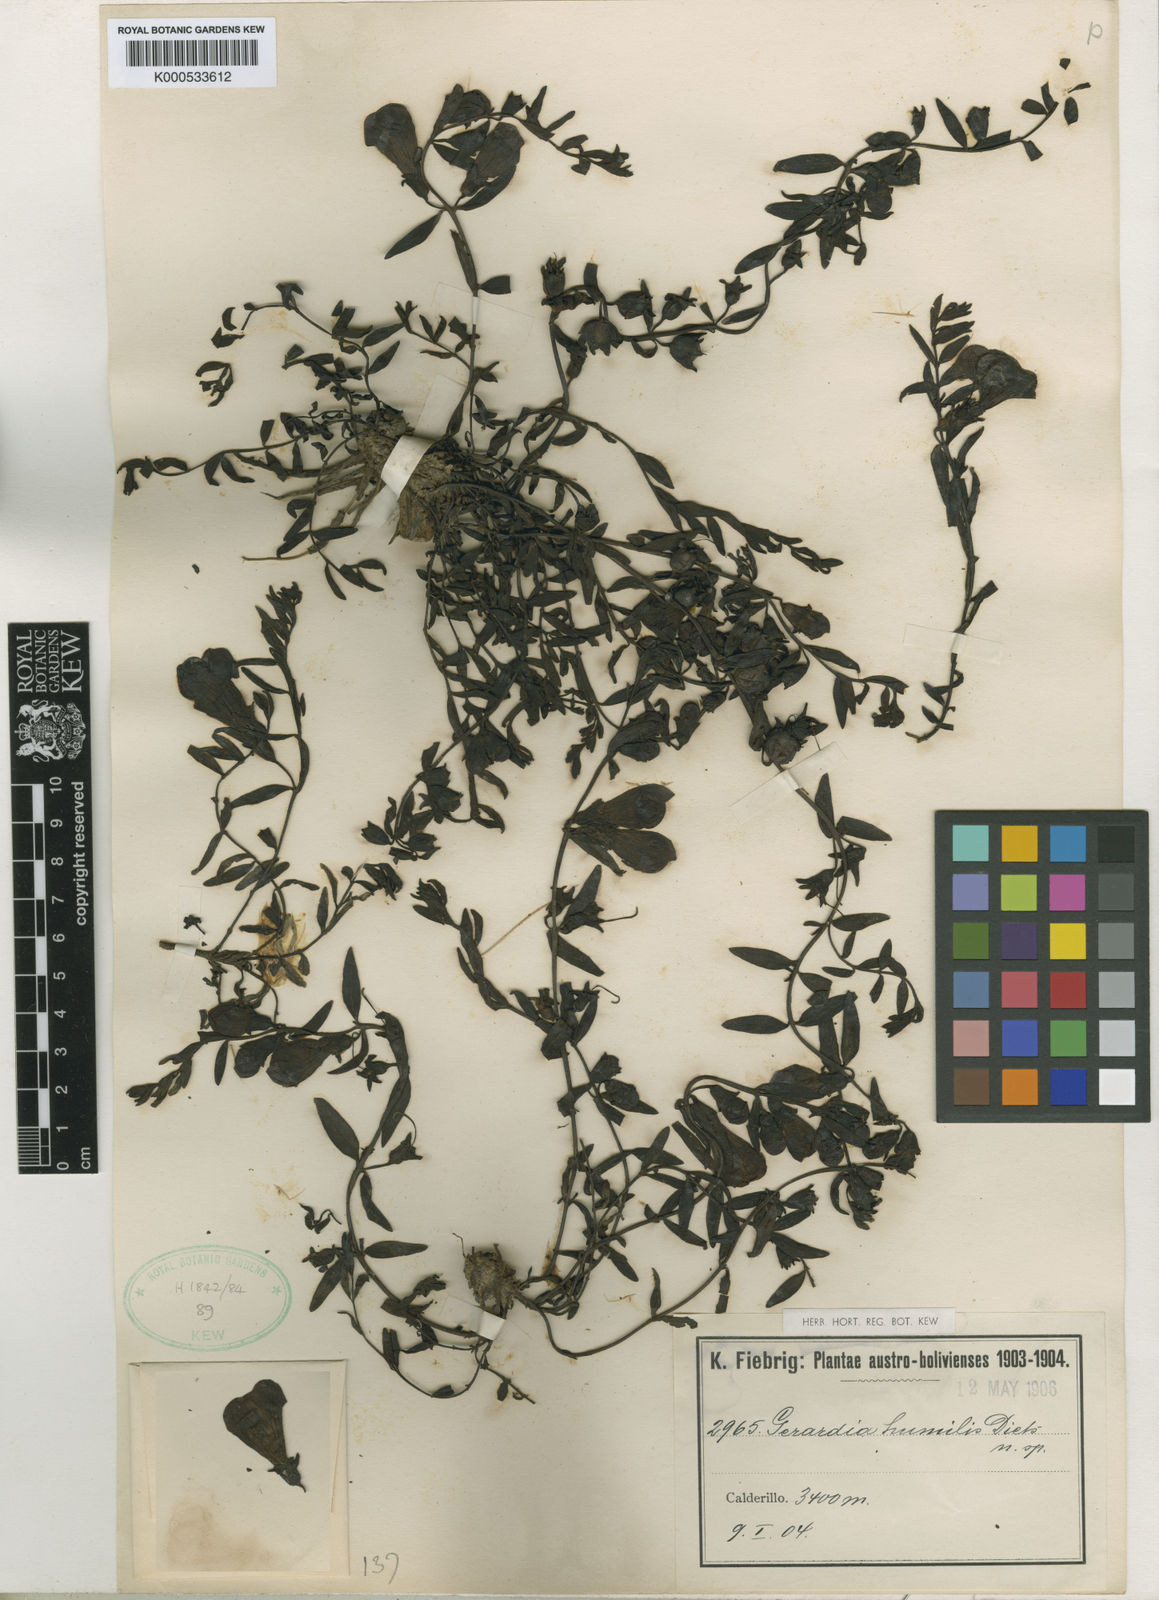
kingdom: Plantae
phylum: Tracheophyta
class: Magnoliopsida
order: Lamiales
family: Orobanchaceae
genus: Agalinis
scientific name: Agalinis humilis
